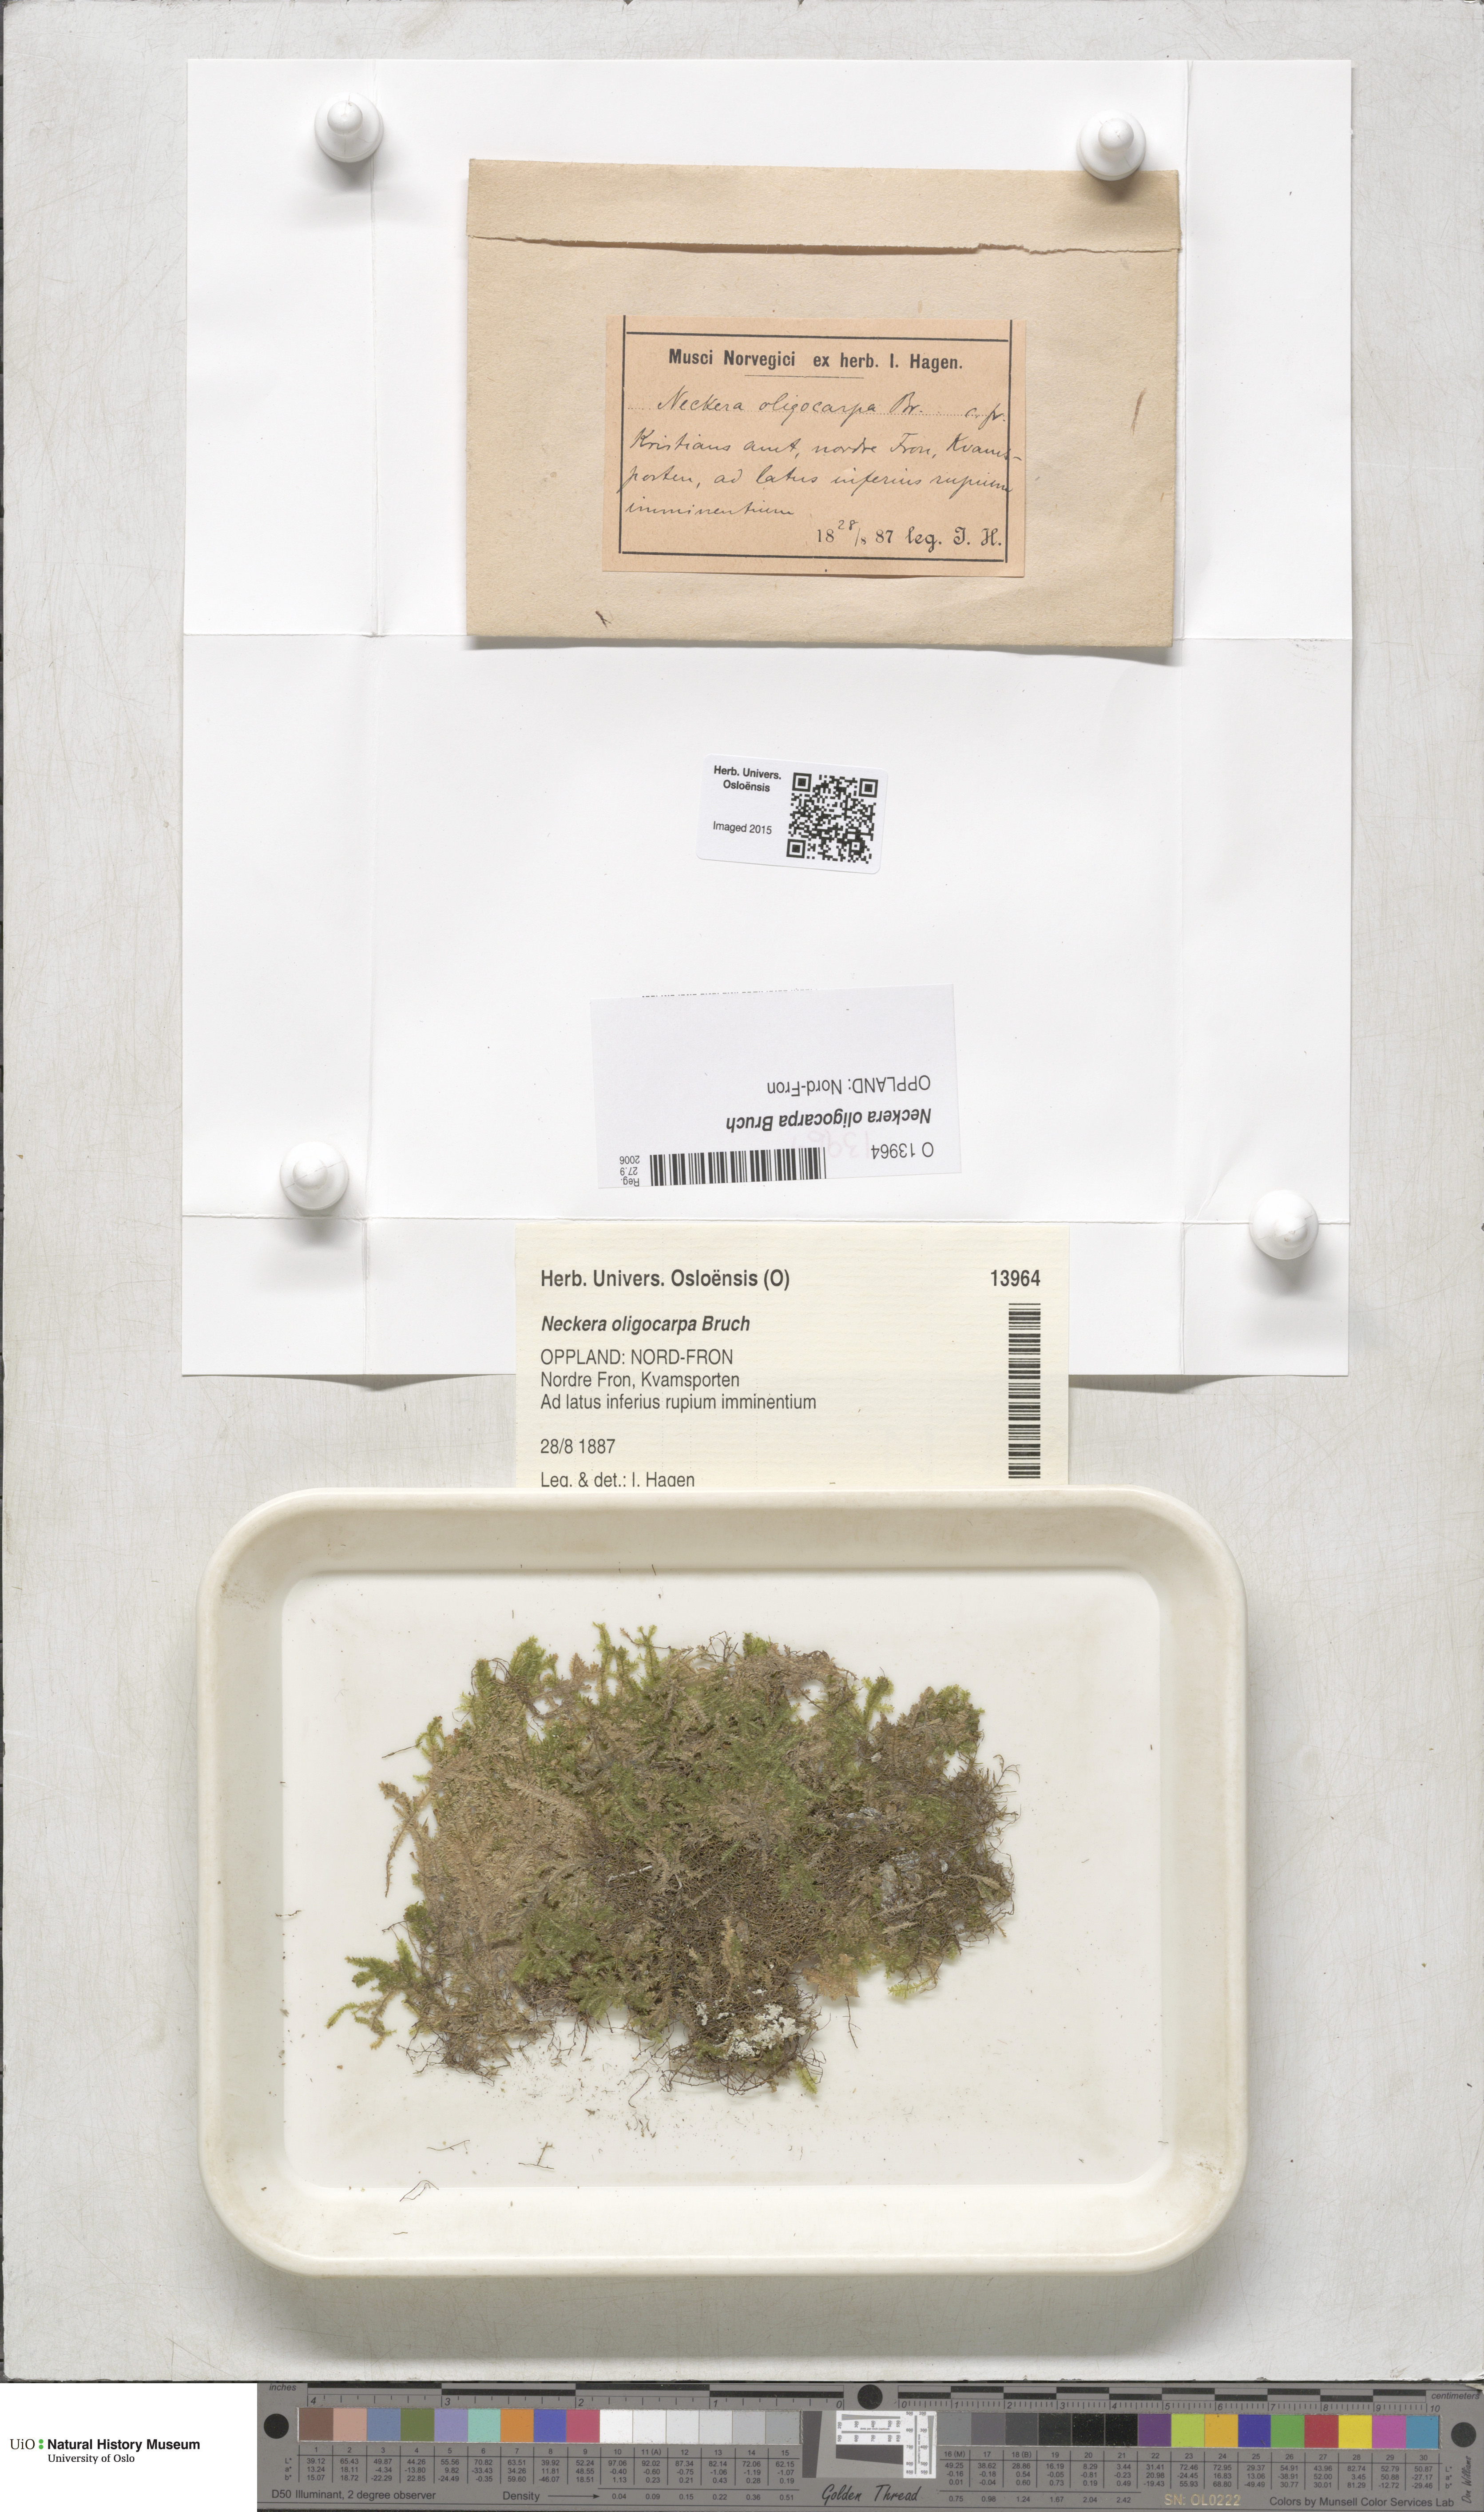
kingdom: Plantae
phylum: Bryophyta
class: Bryopsida
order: Hypnales
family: Neckeraceae
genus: Neckera
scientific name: Neckera oligocarpa
